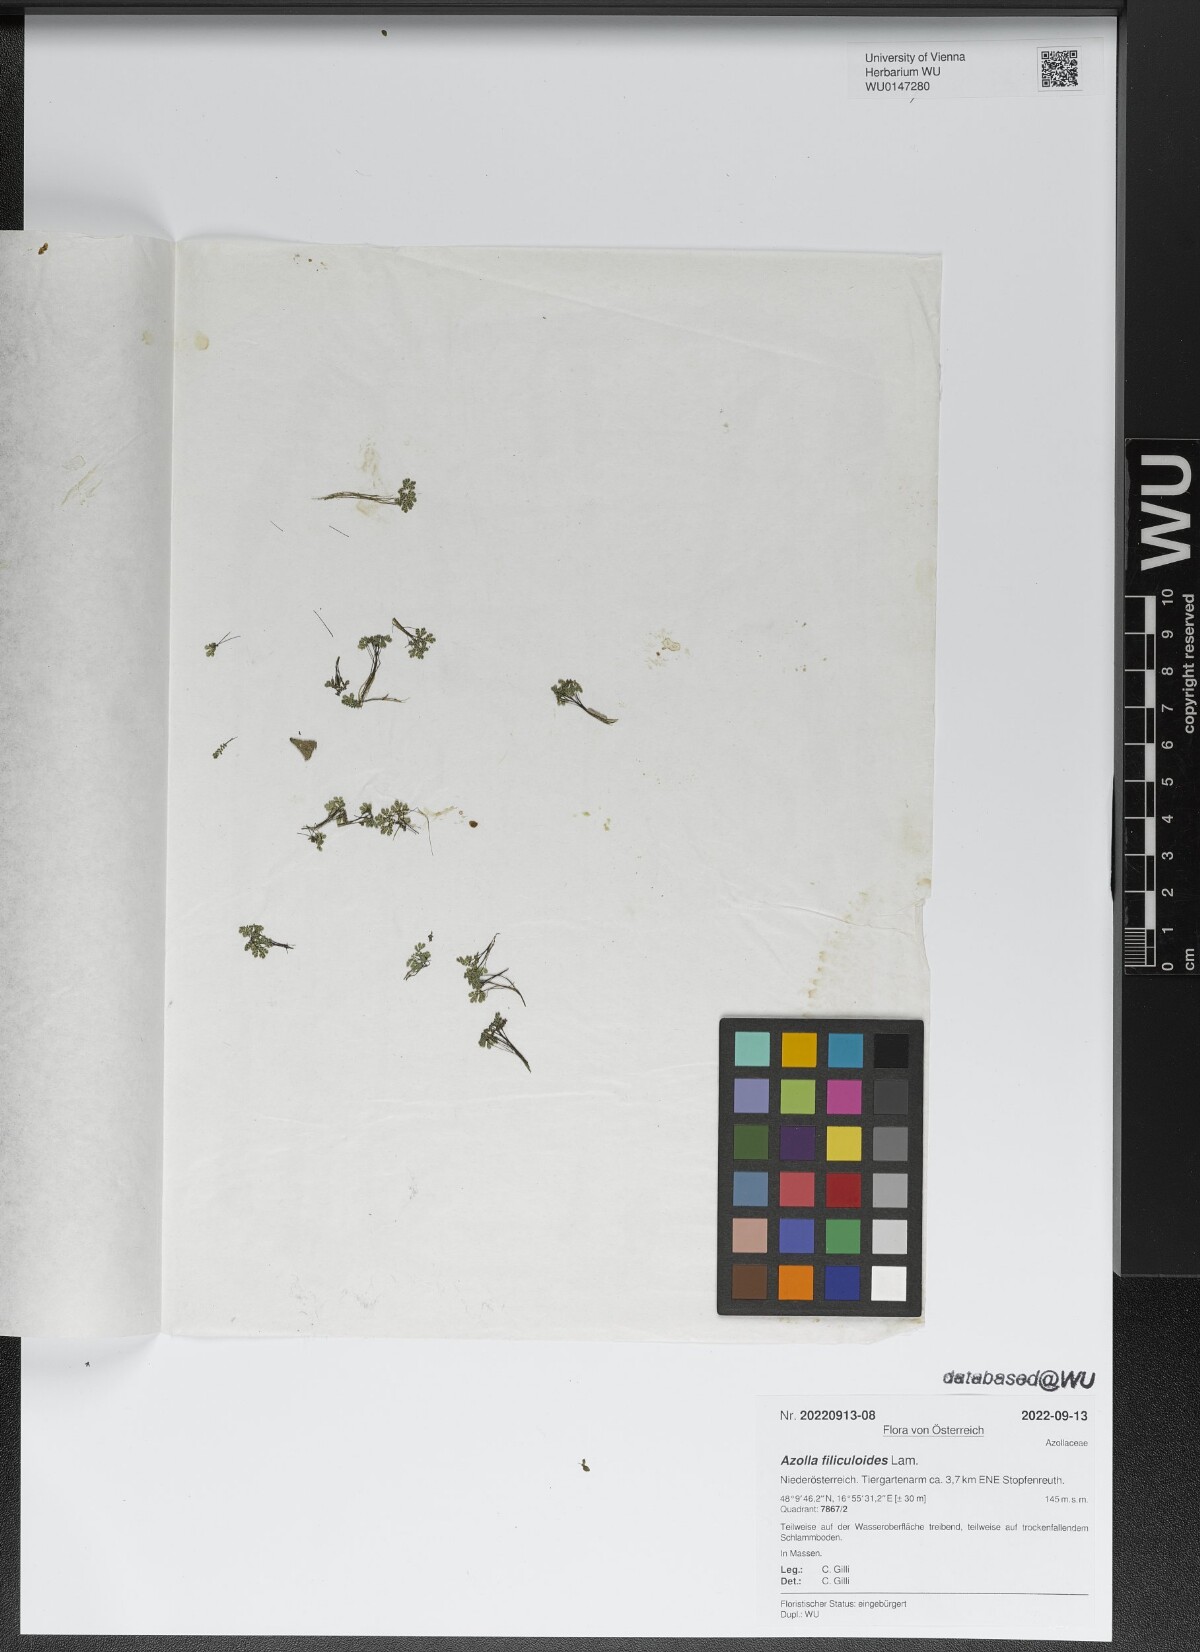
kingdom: Plantae
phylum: Tracheophyta
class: Polypodiopsida
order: Salviniales
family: Salviniaceae
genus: Azolla
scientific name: Azolla filiculoides
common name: Water fern
